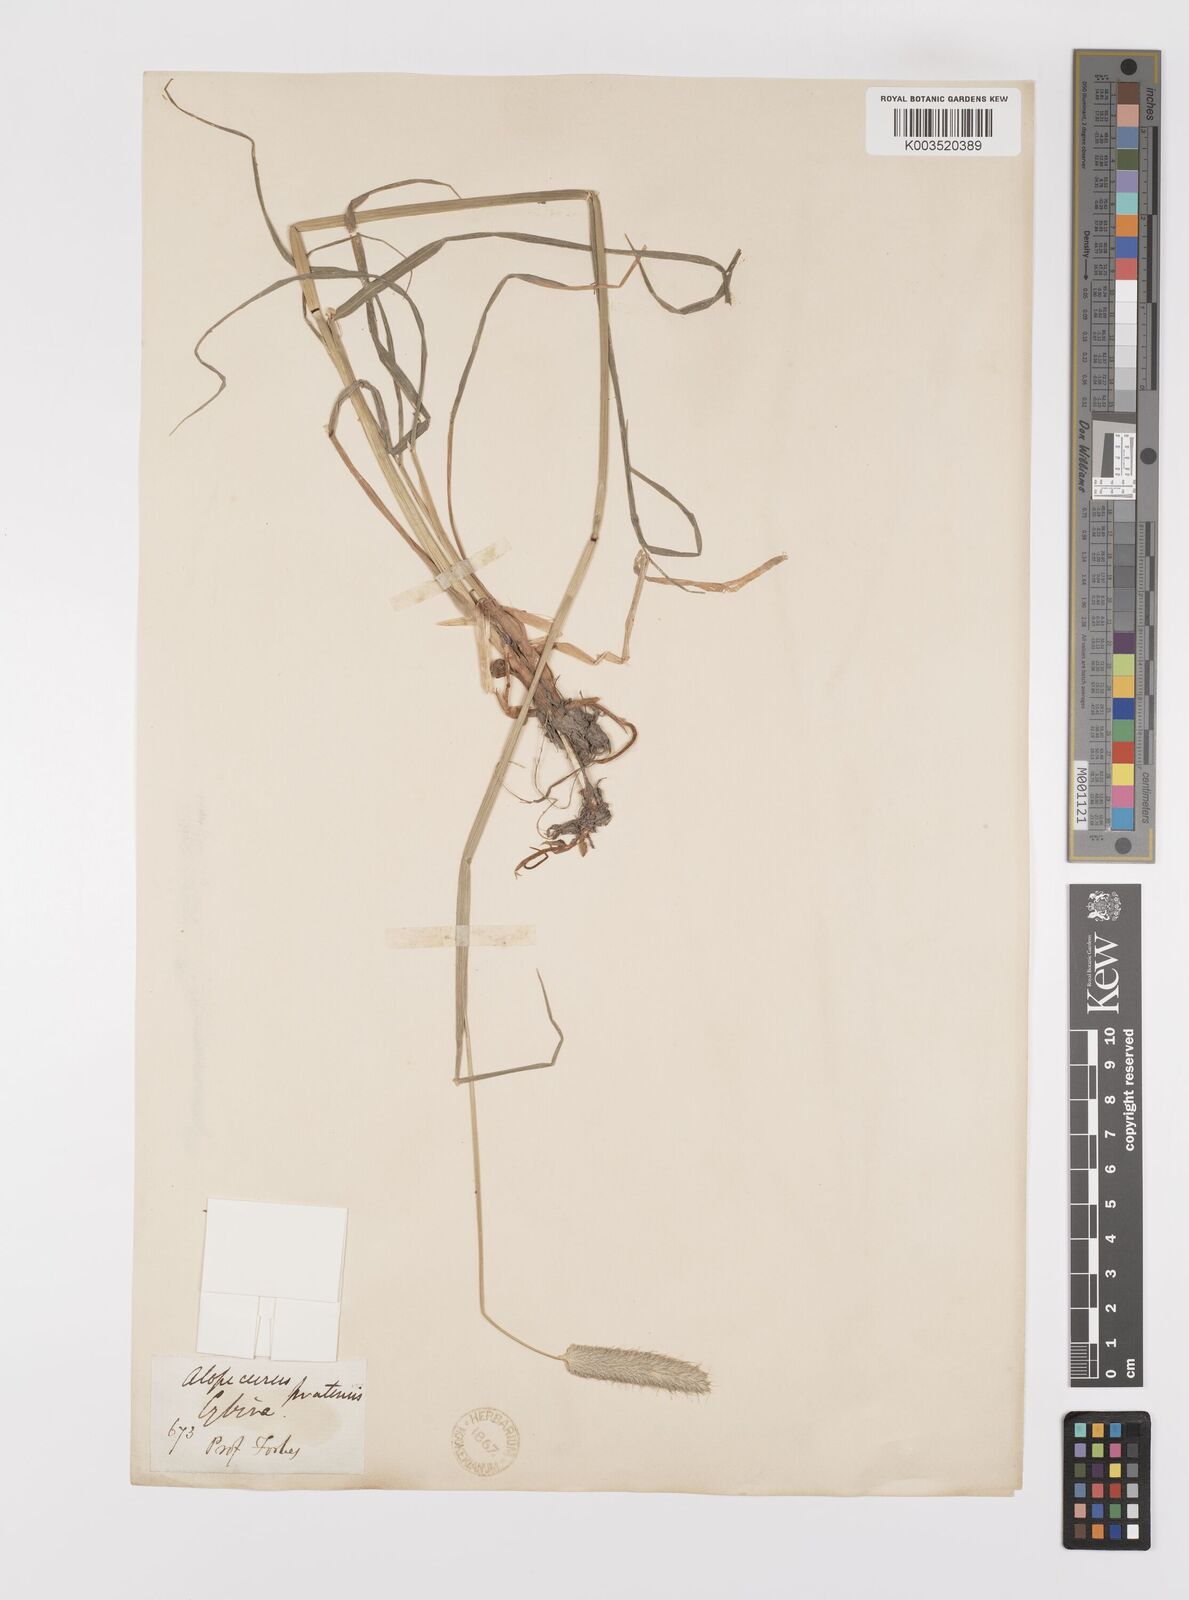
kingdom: Plantae
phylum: Tracheophyta
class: Liliopsida
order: Poales
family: Poaceae
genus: Alopecurus
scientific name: Alopecurus arundinaceus
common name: Creeping meadow foxtail
